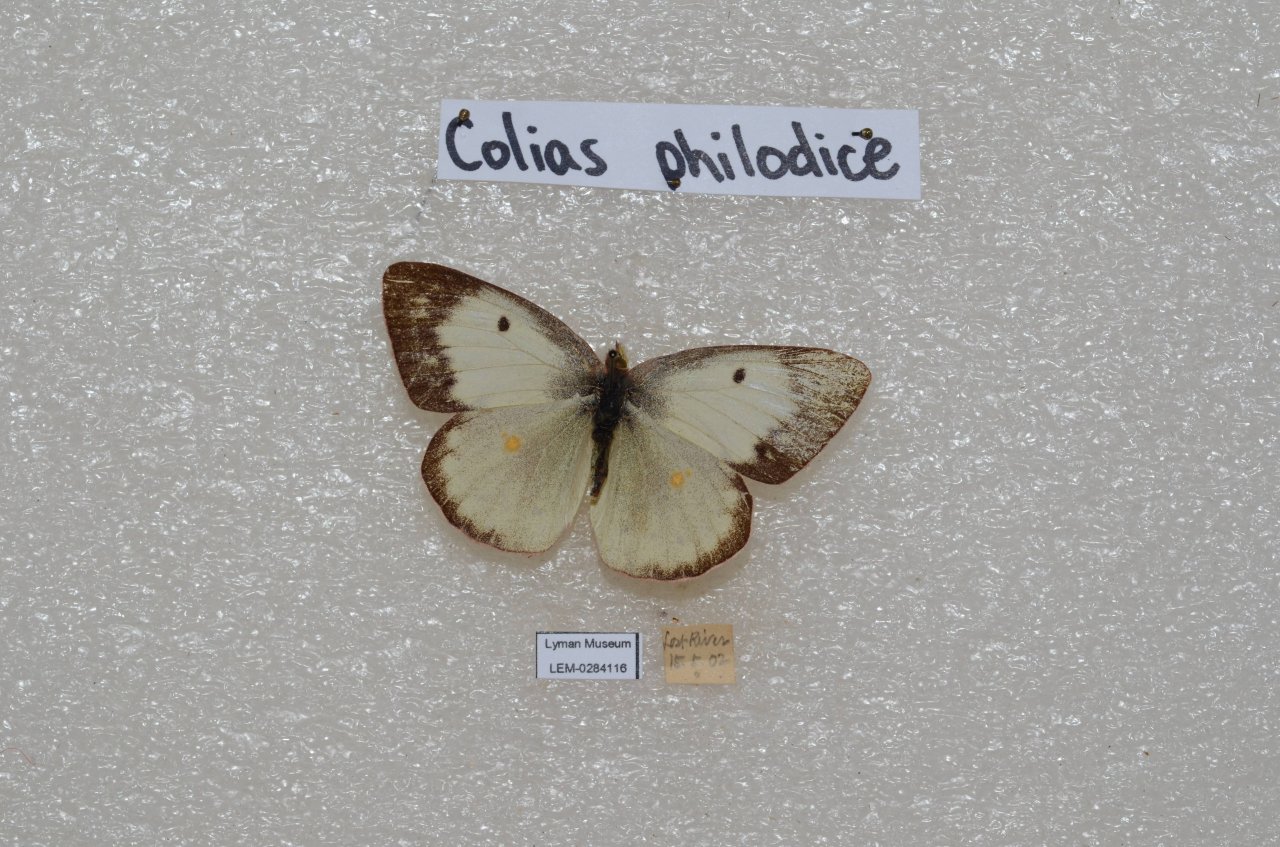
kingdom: Animalia
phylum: Arthropoda
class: Insecta
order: Lepidoptera
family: Pieridae
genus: Colias
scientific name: Colias philodice
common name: Clouded Sulphur
